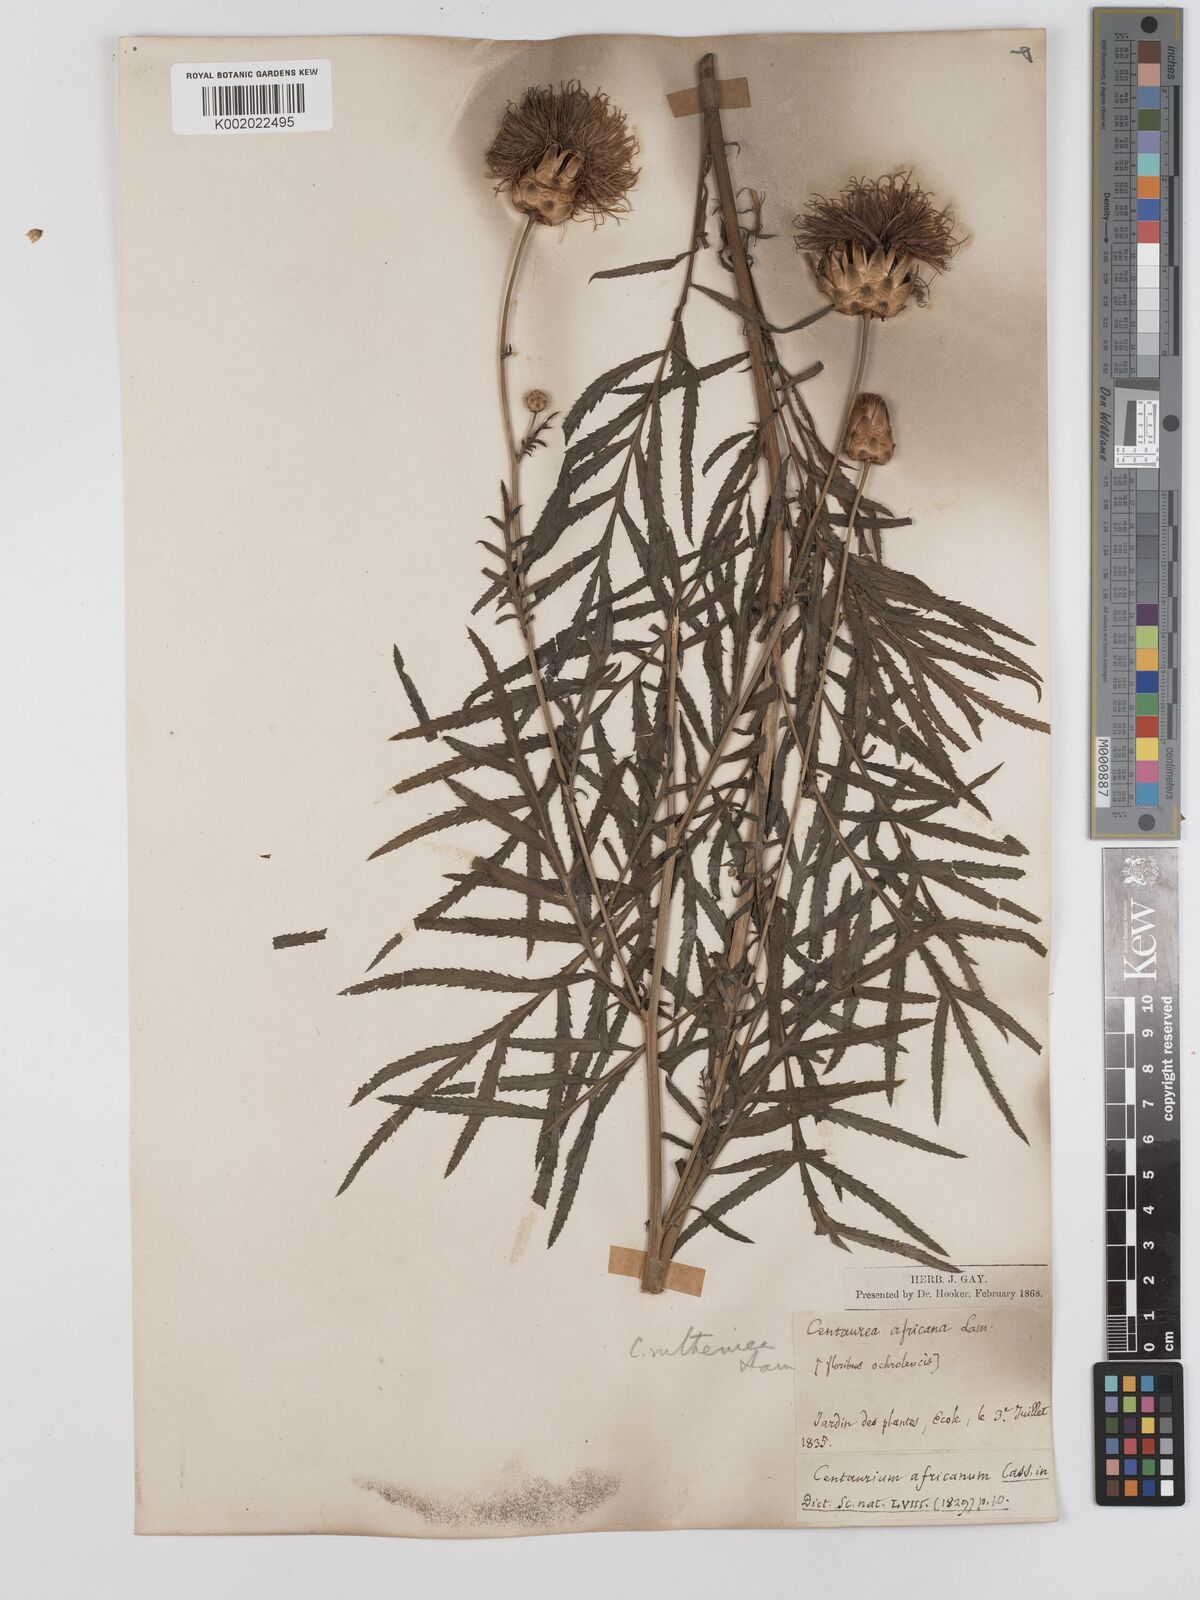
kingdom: Plantae
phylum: Tracheophyta
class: Magnoliopsida
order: Asterales
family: Asteraceae
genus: Rhaponticoides
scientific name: Rhaponticoides ruthenica
